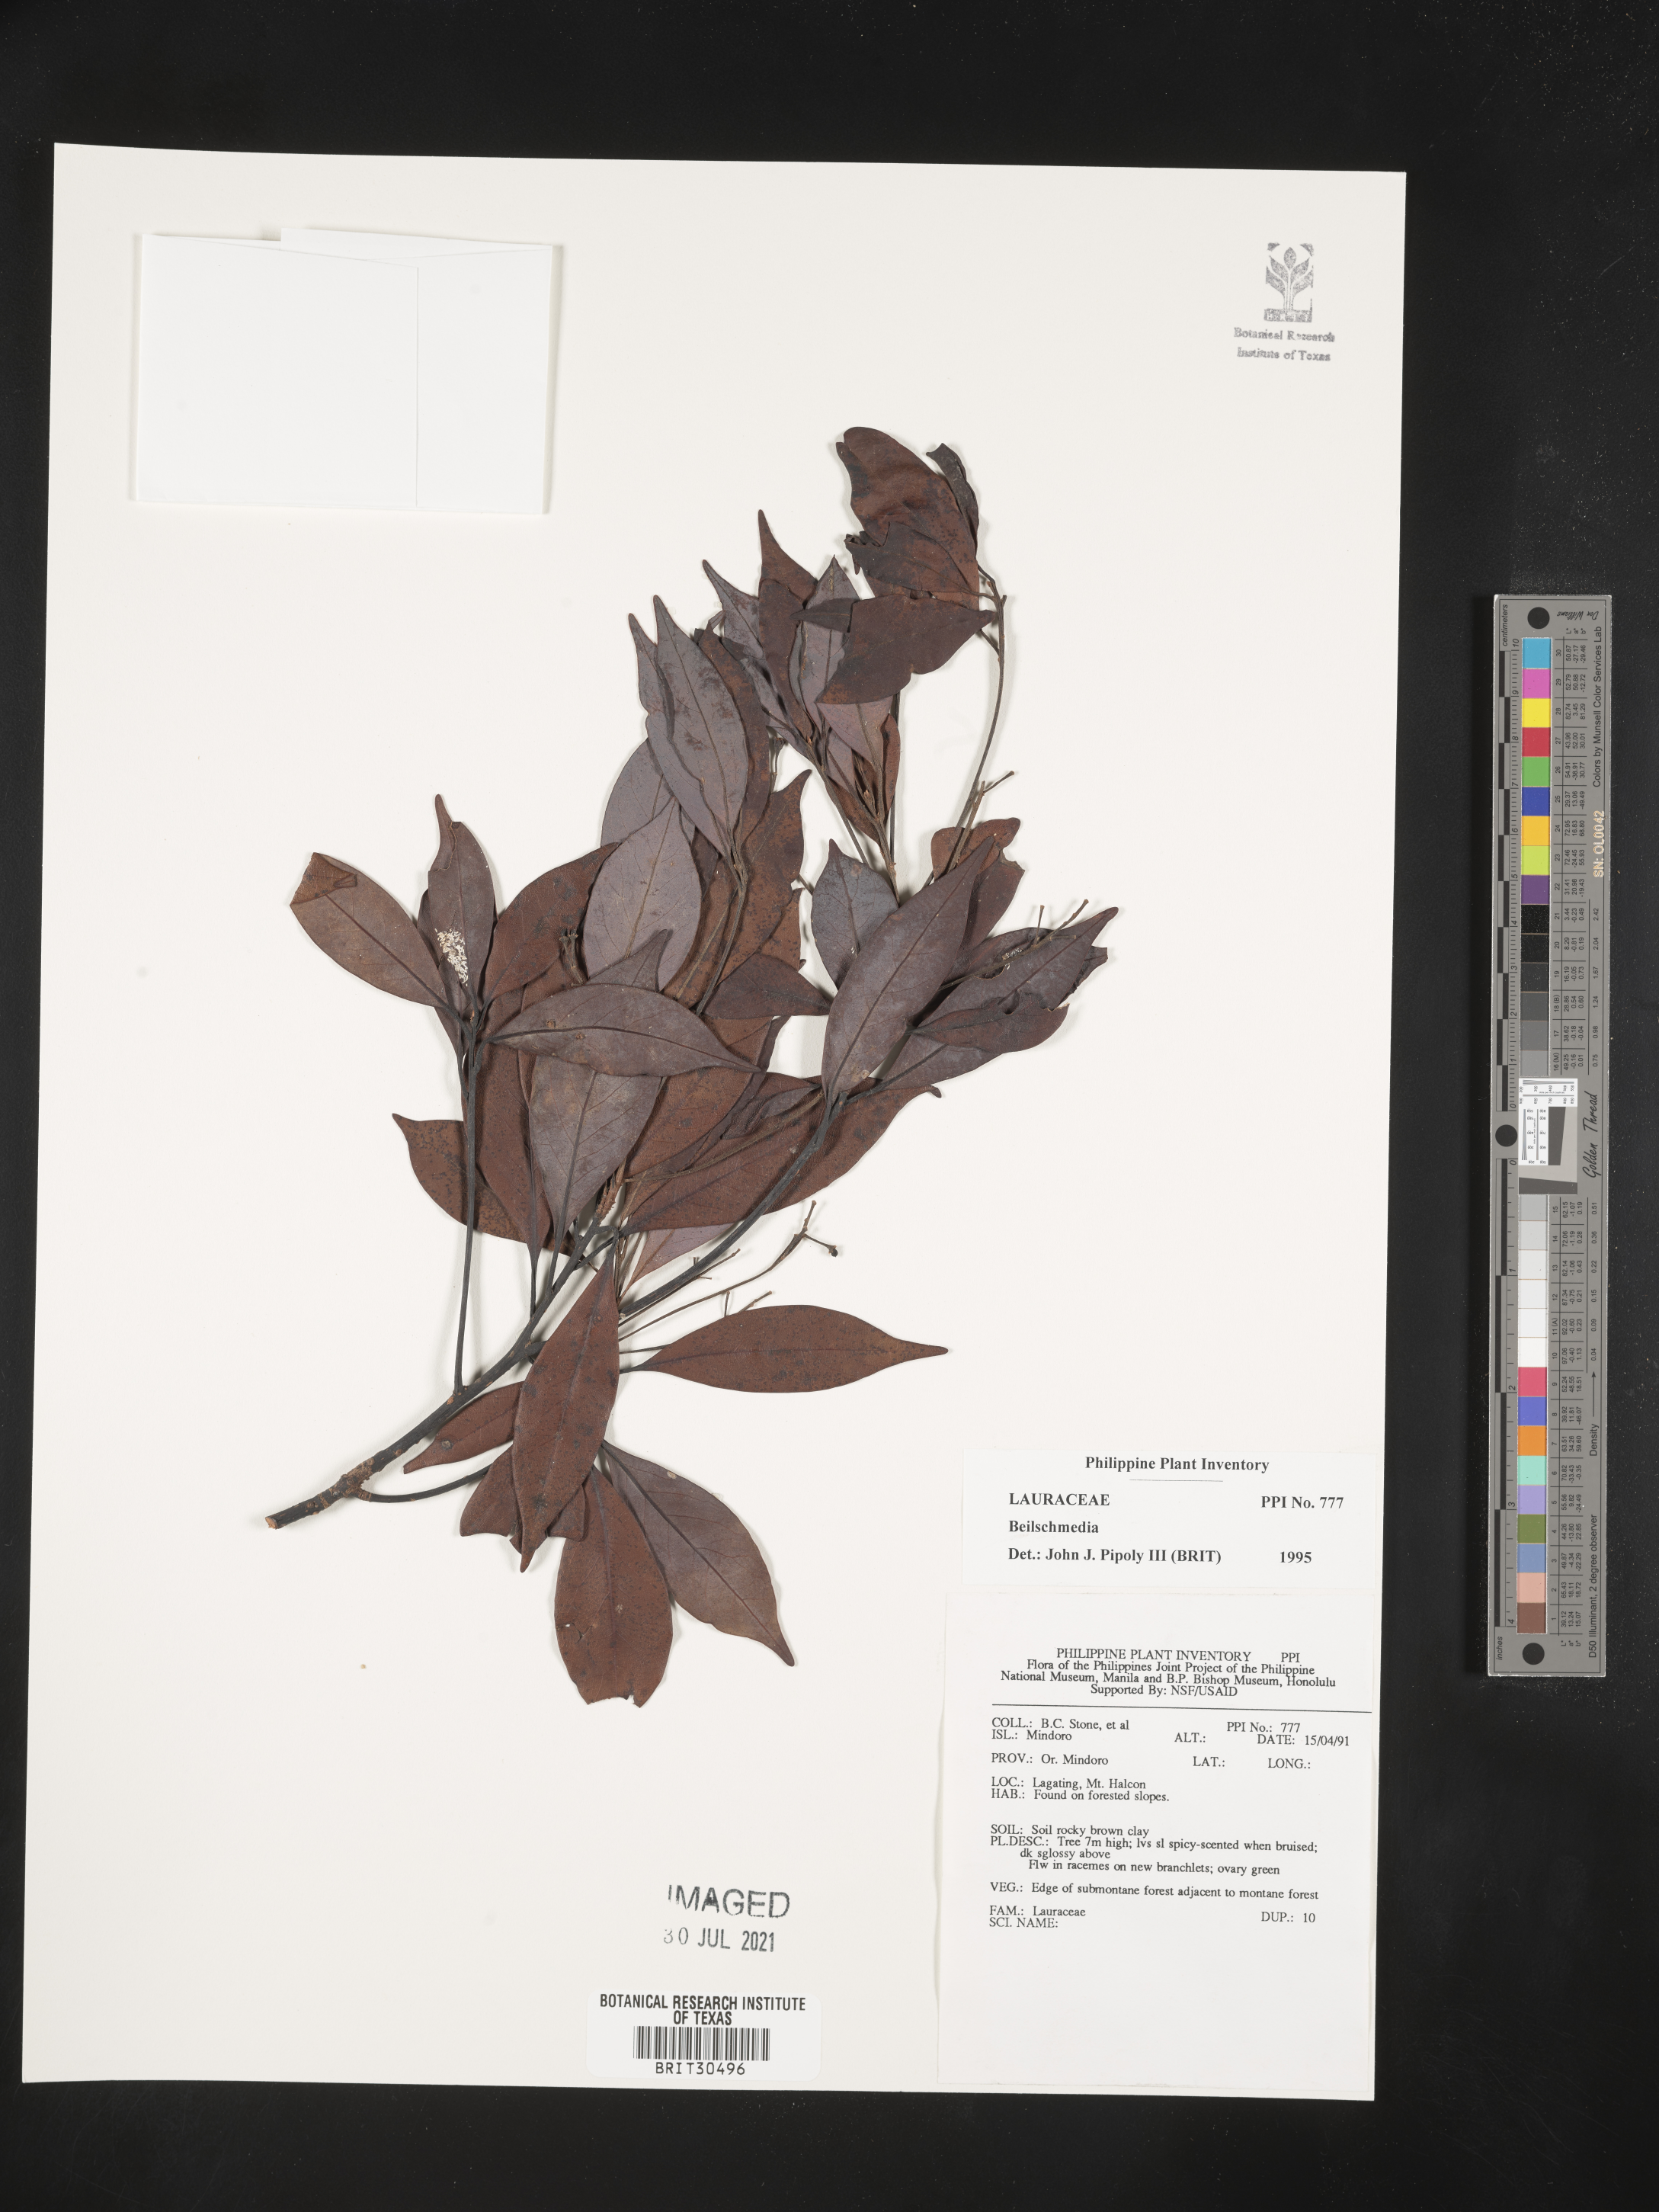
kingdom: Plantae
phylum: Tracheophyta
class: Magnoliopsida
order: Laurales
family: Lauraceae
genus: Beilschmiedia
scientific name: Beilschmiedia
